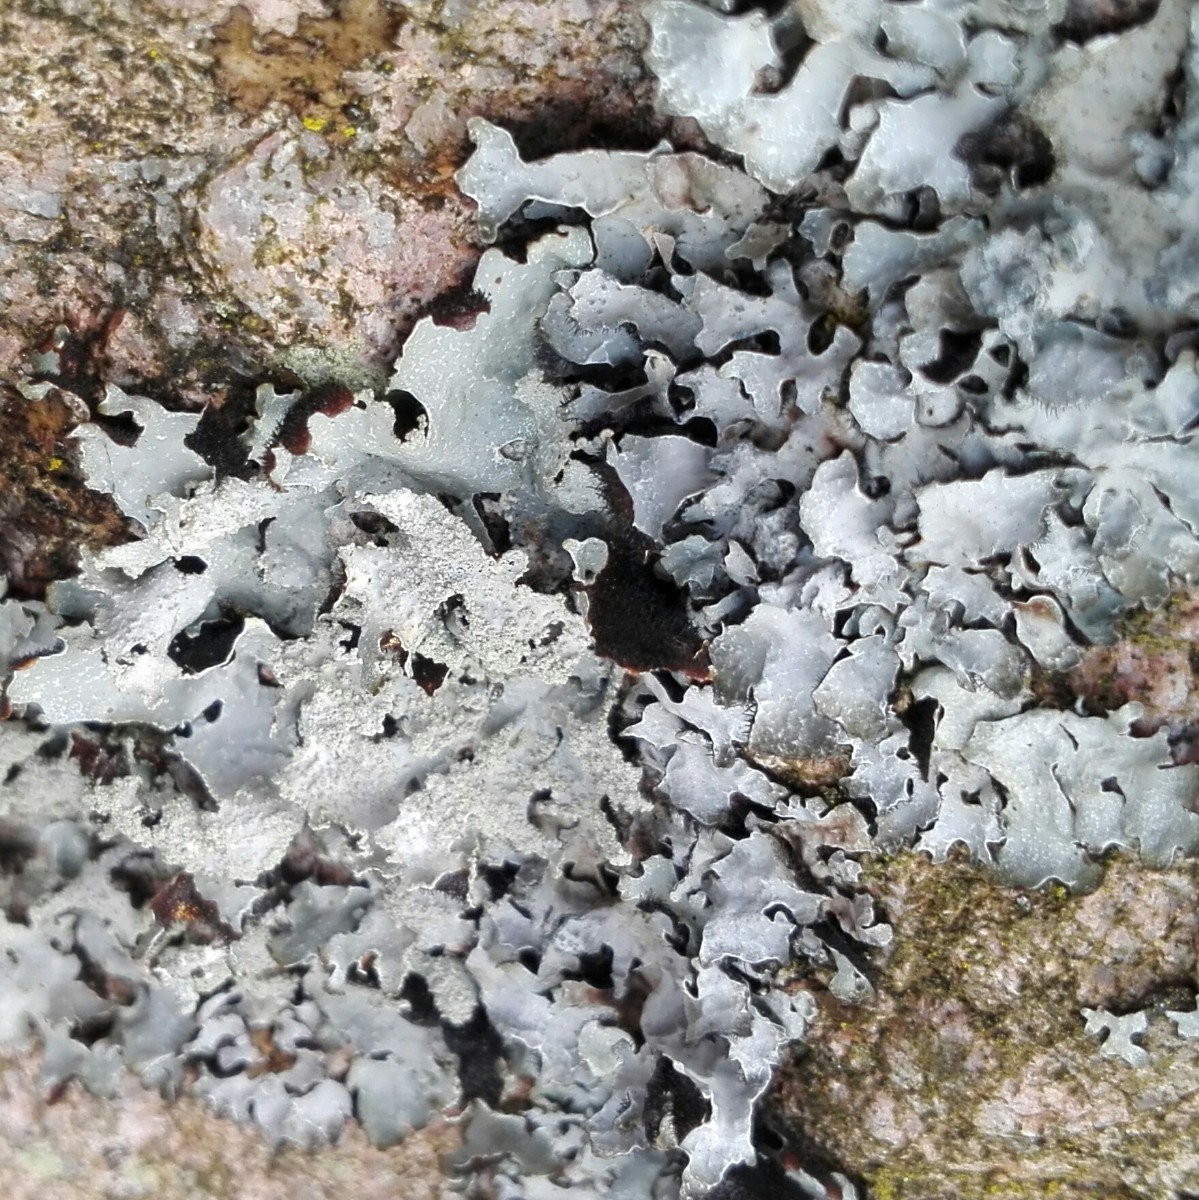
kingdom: Fungi
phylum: Ascomycota
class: Lecanoromycetes
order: Lecanorales
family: Parmeliaceae
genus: Parmelia
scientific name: Parmelia saxatilis
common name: farve-skållav
